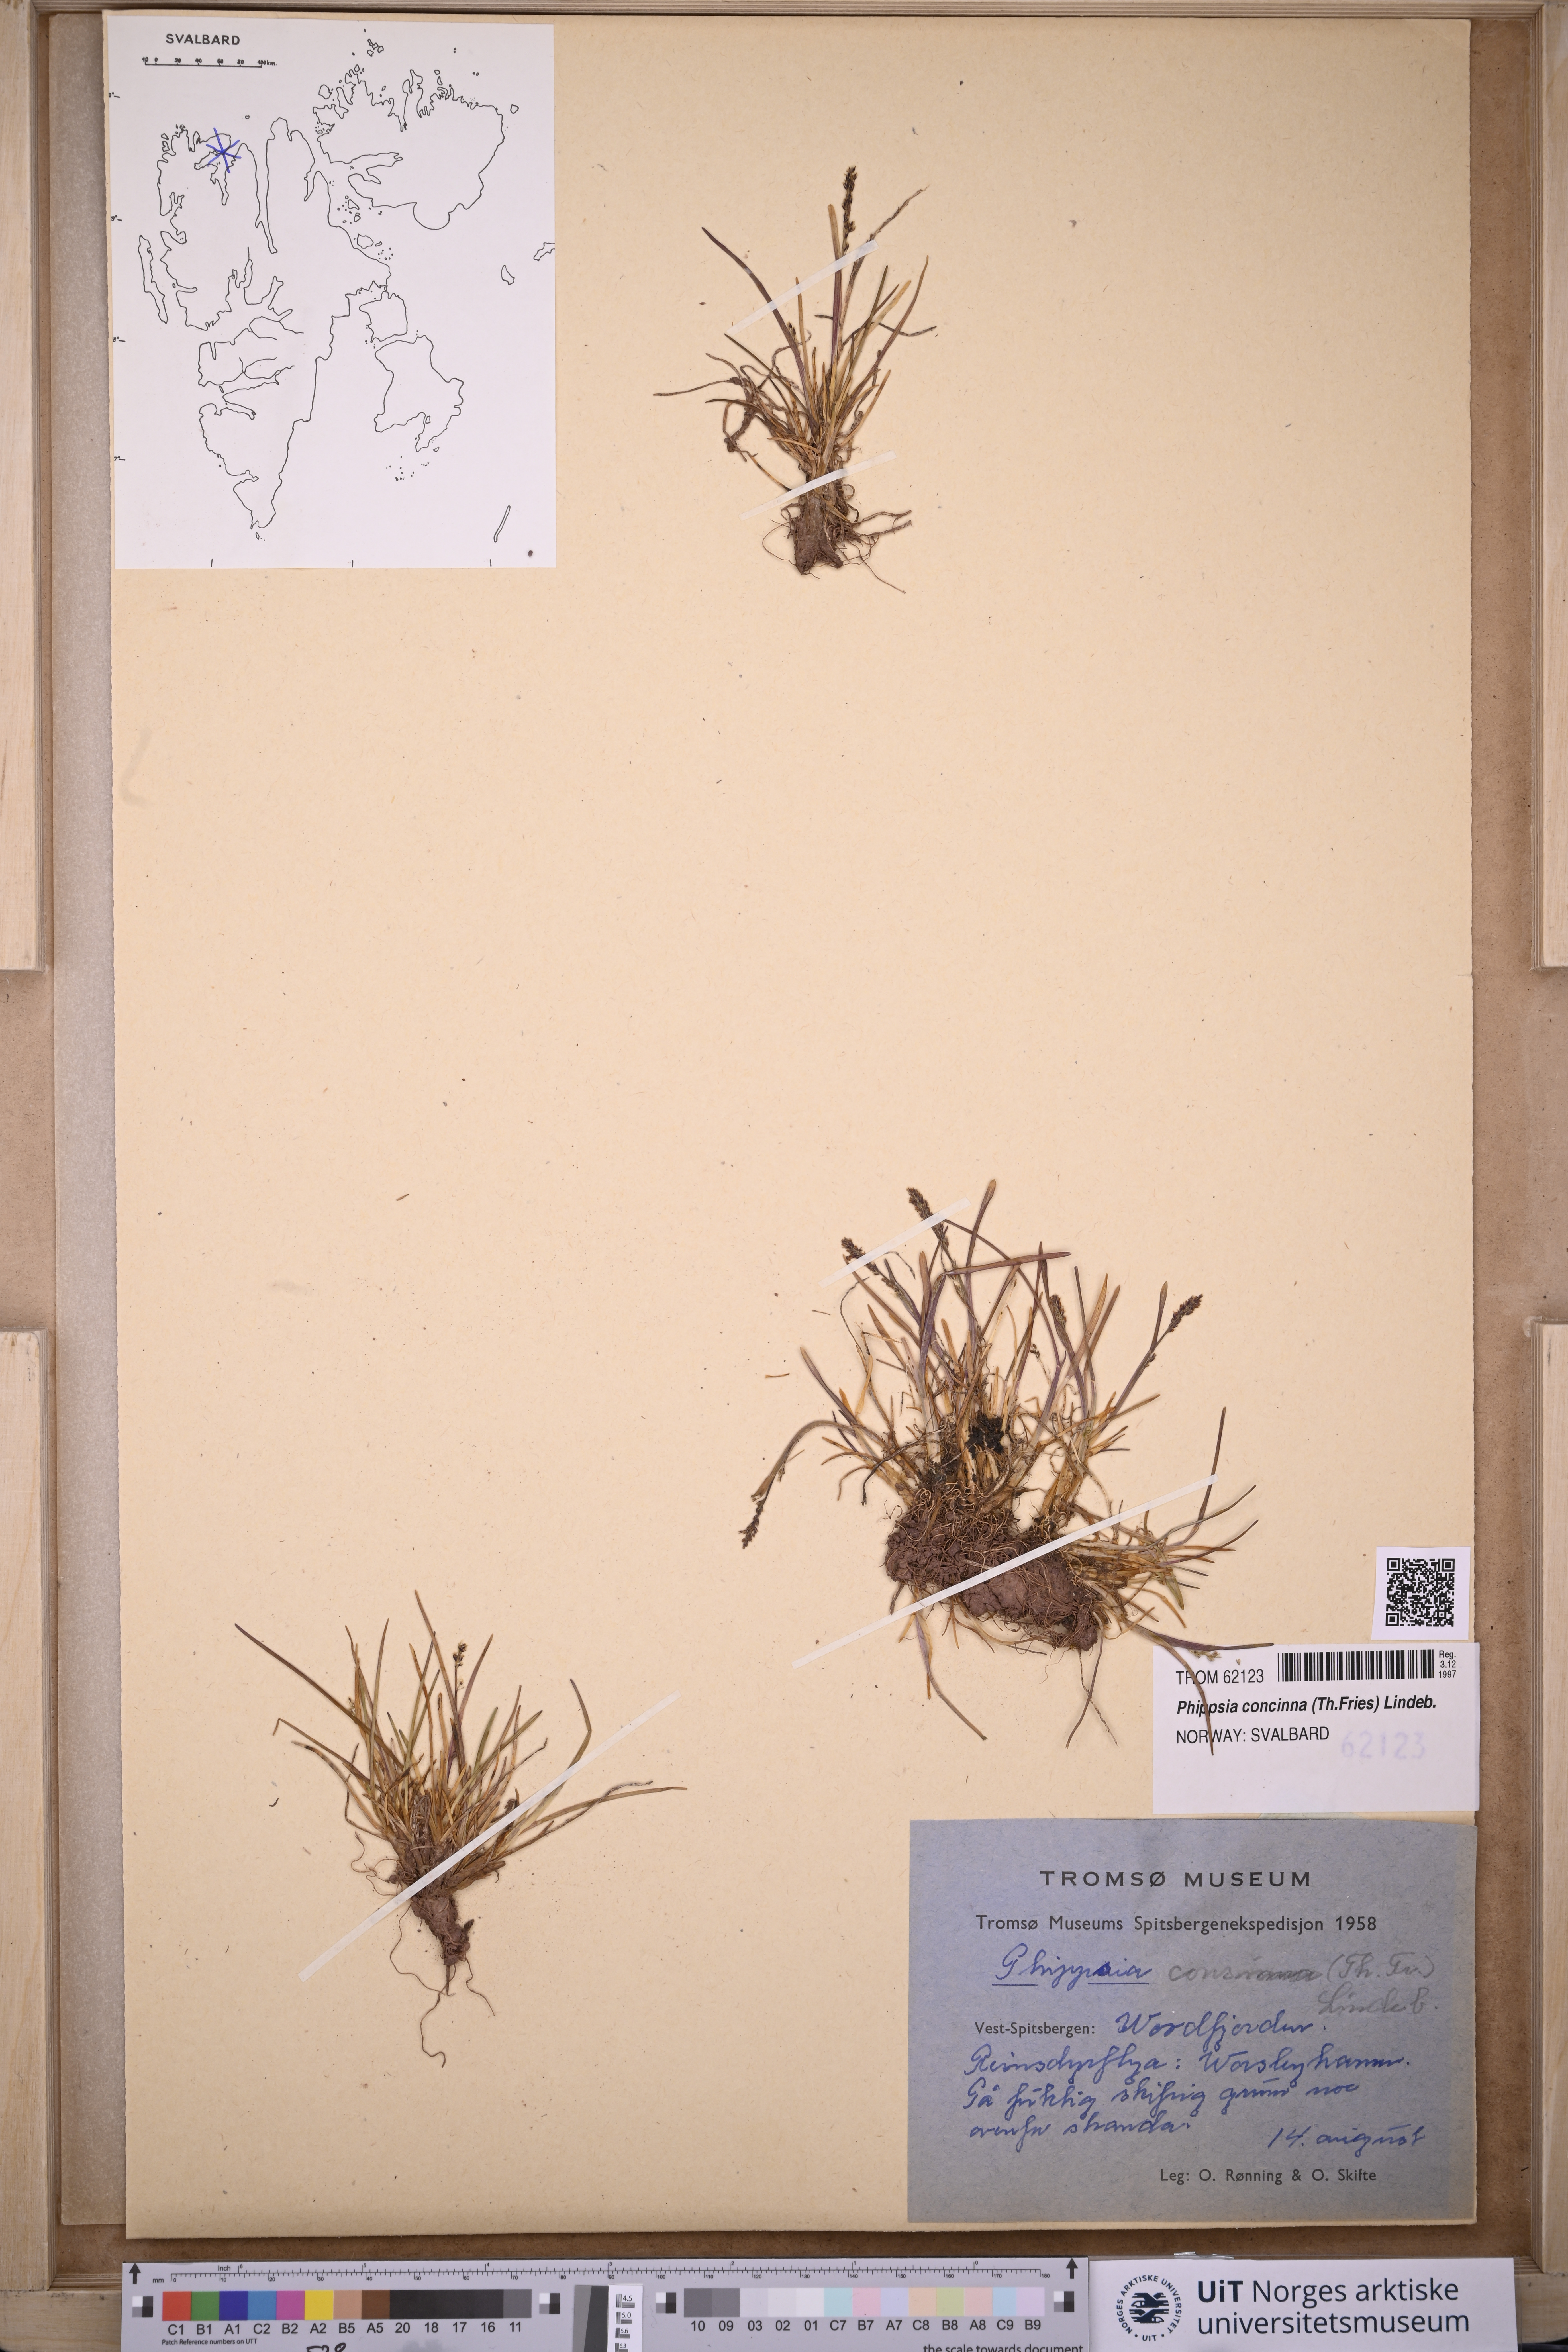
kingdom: Plantae
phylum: Tracheophyta
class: Liliopsida
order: Poales
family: Poaceae
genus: Phippsia
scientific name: Phippsia concinna
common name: Snowgrass
